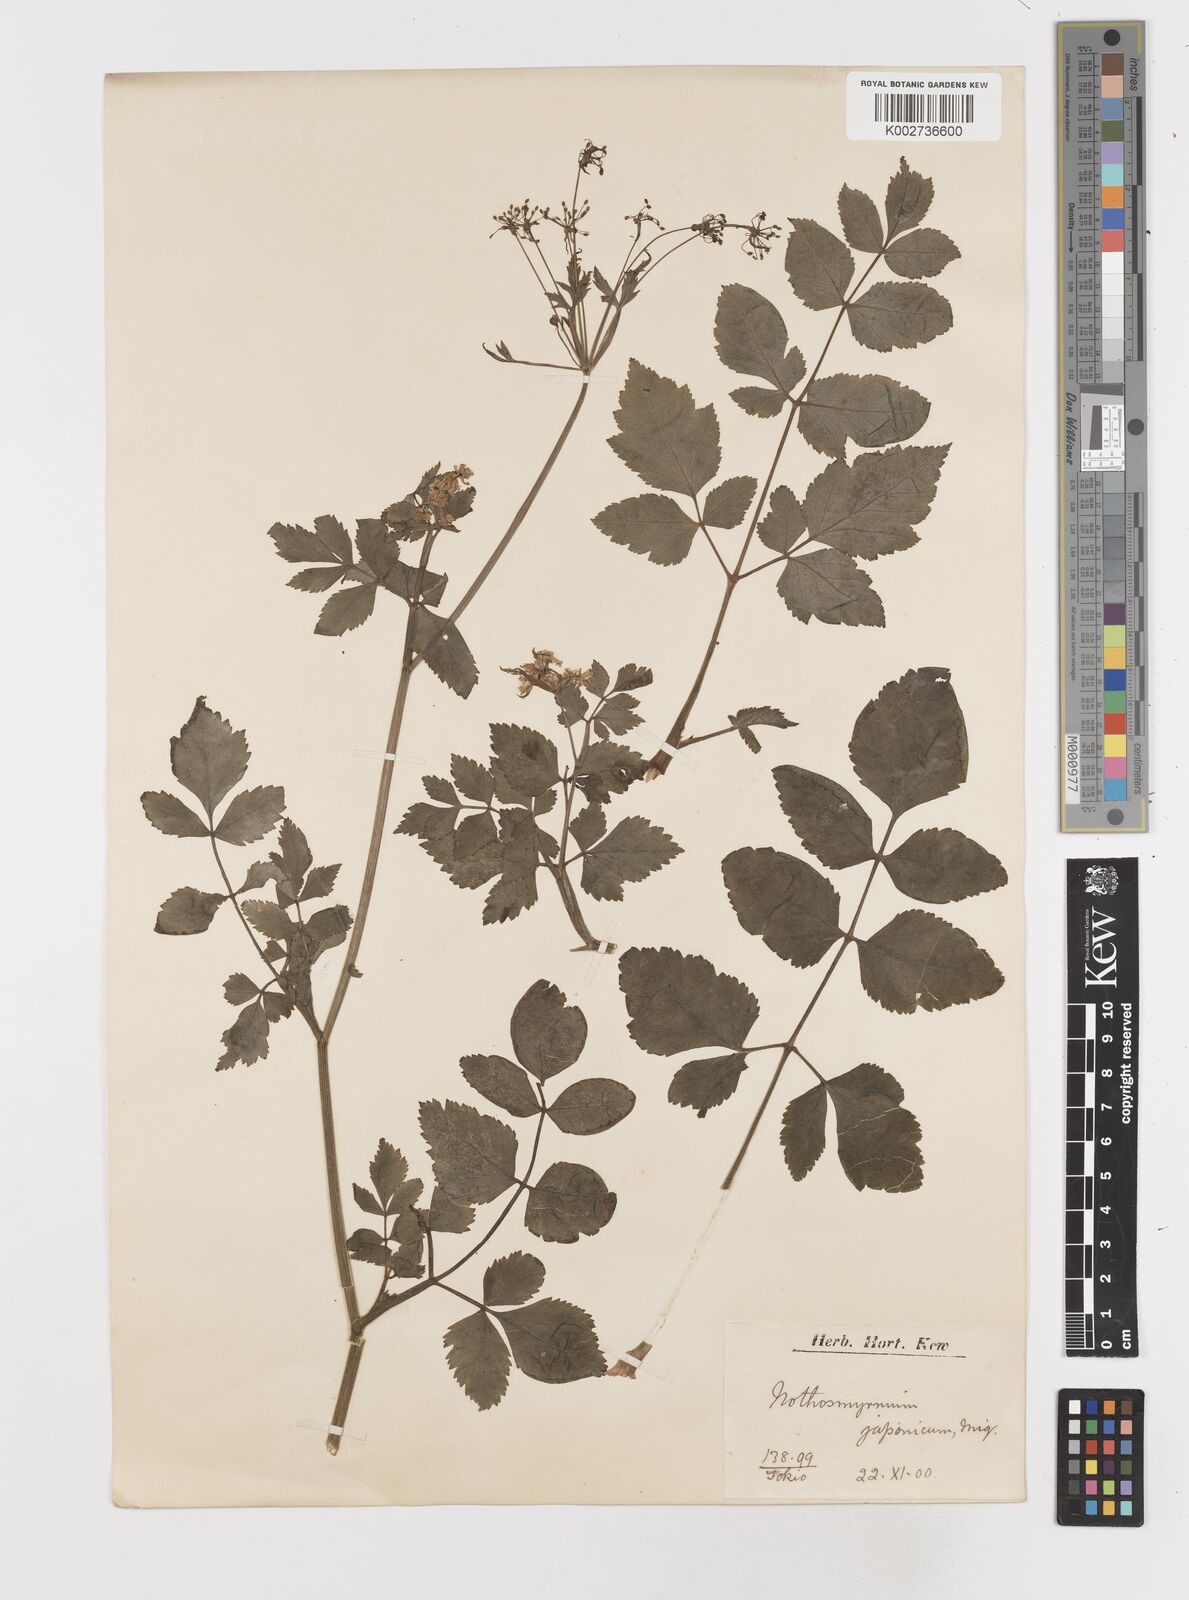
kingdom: Plantae
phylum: Tracheophyta
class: Magnoliopsida
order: Apiales
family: Apiaceae
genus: Nothosmyrnium
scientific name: Nothosmyrnium japonicum
